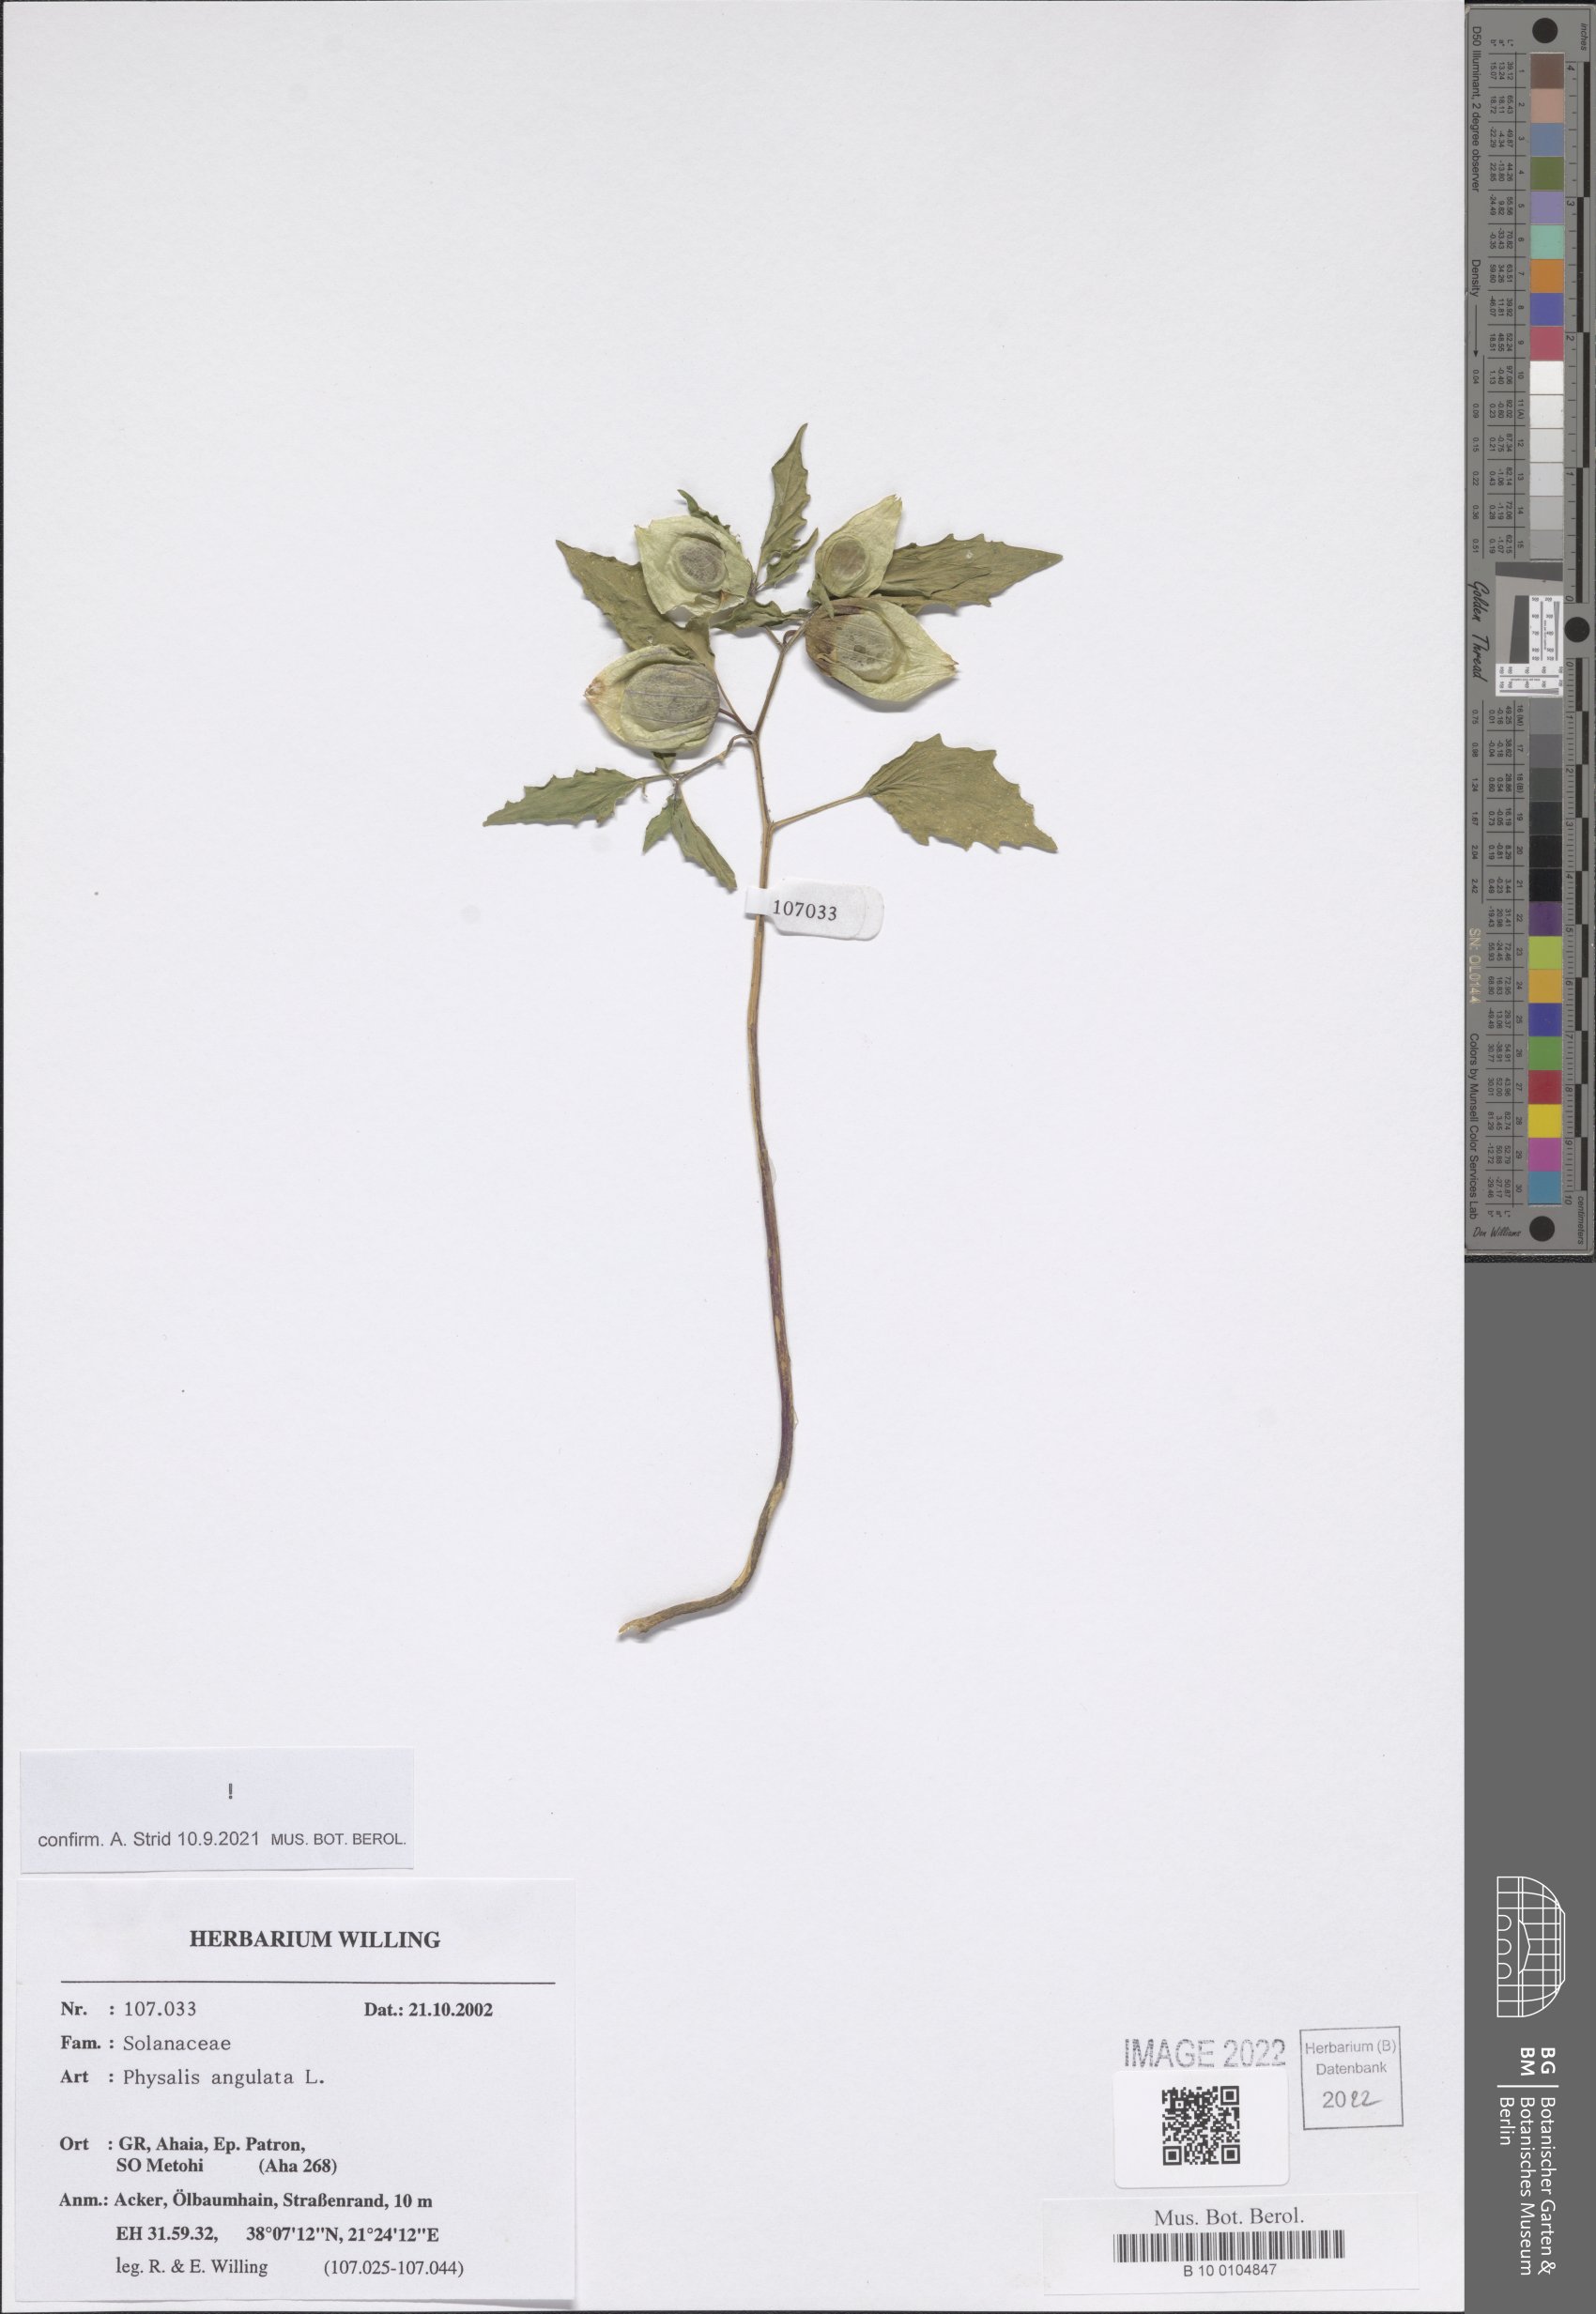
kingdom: Plantae
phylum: Tracheophyta
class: Magnoliopsida
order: Solanales
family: Solanaceae
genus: Physalis
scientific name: Physalis angulata
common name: Angular winter-cherry
